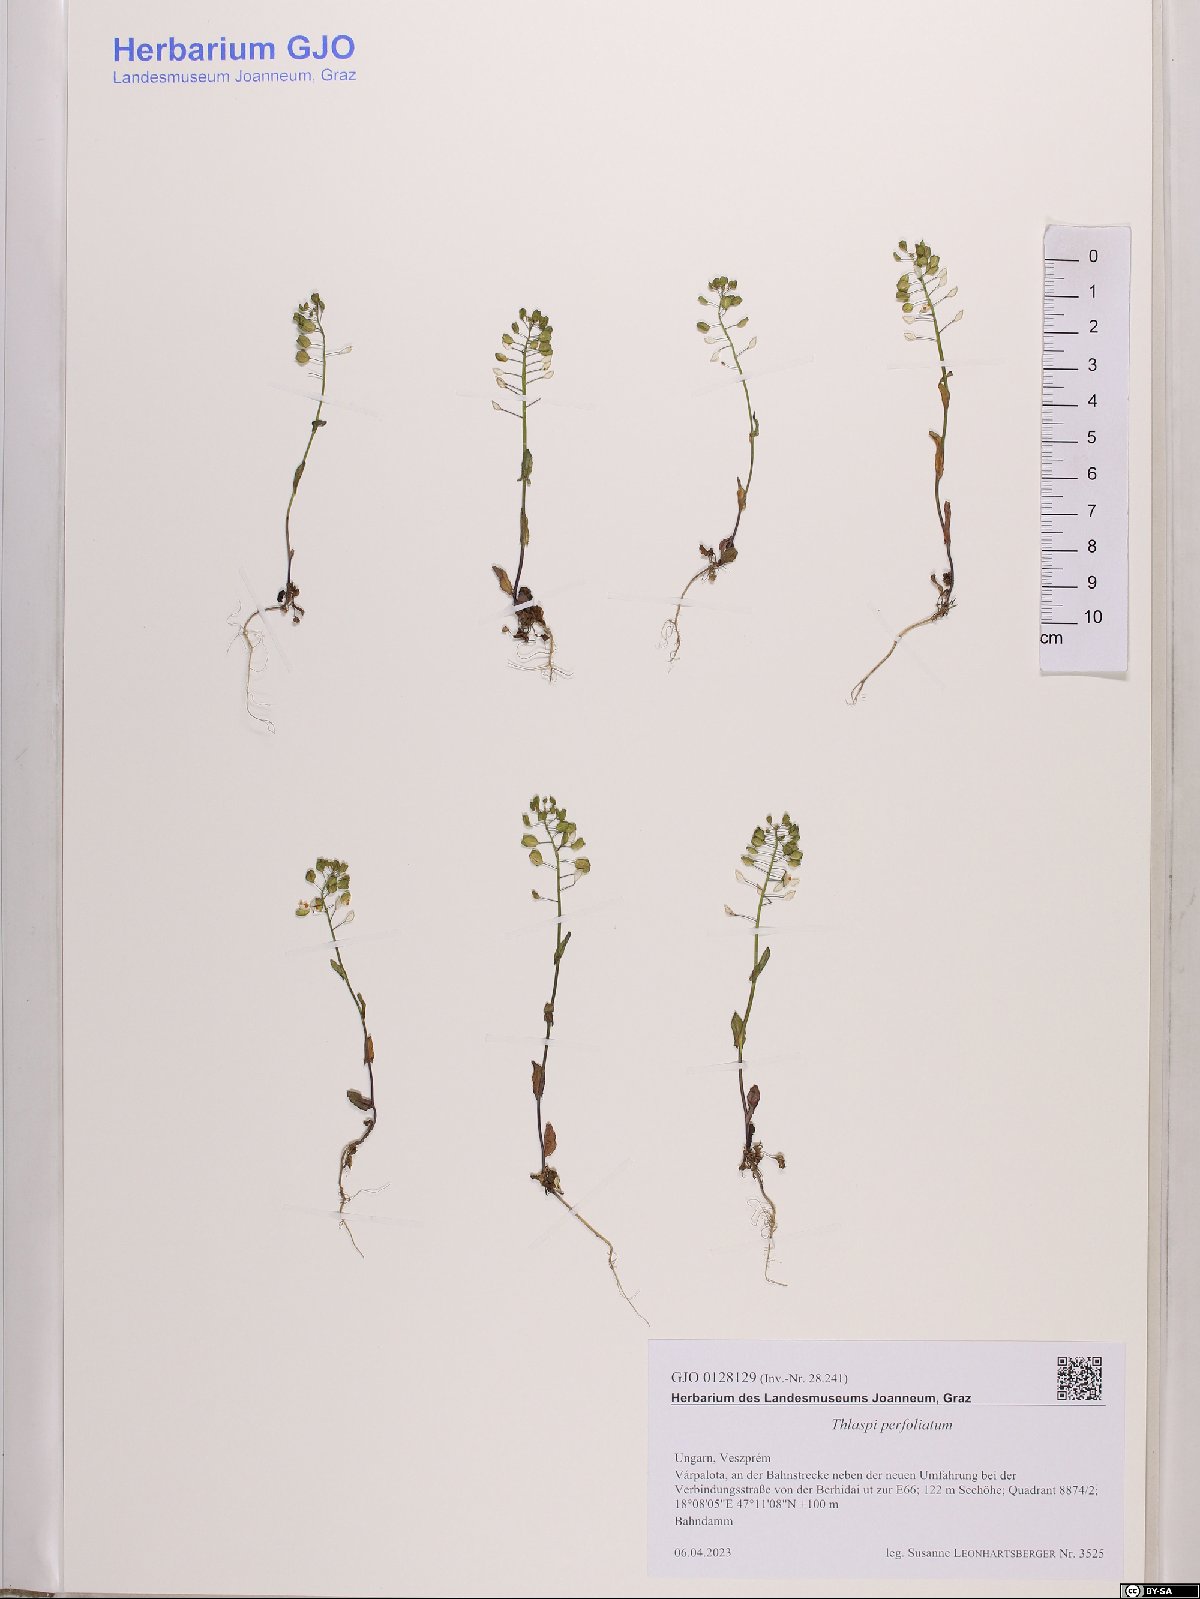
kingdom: Plantae
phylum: Tracheophyta
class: Magnoliopsida
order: Brassicales
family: Brassicaceae
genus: Noccaea
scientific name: Noccaea perfoliata
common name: Perfoliate pennycress
